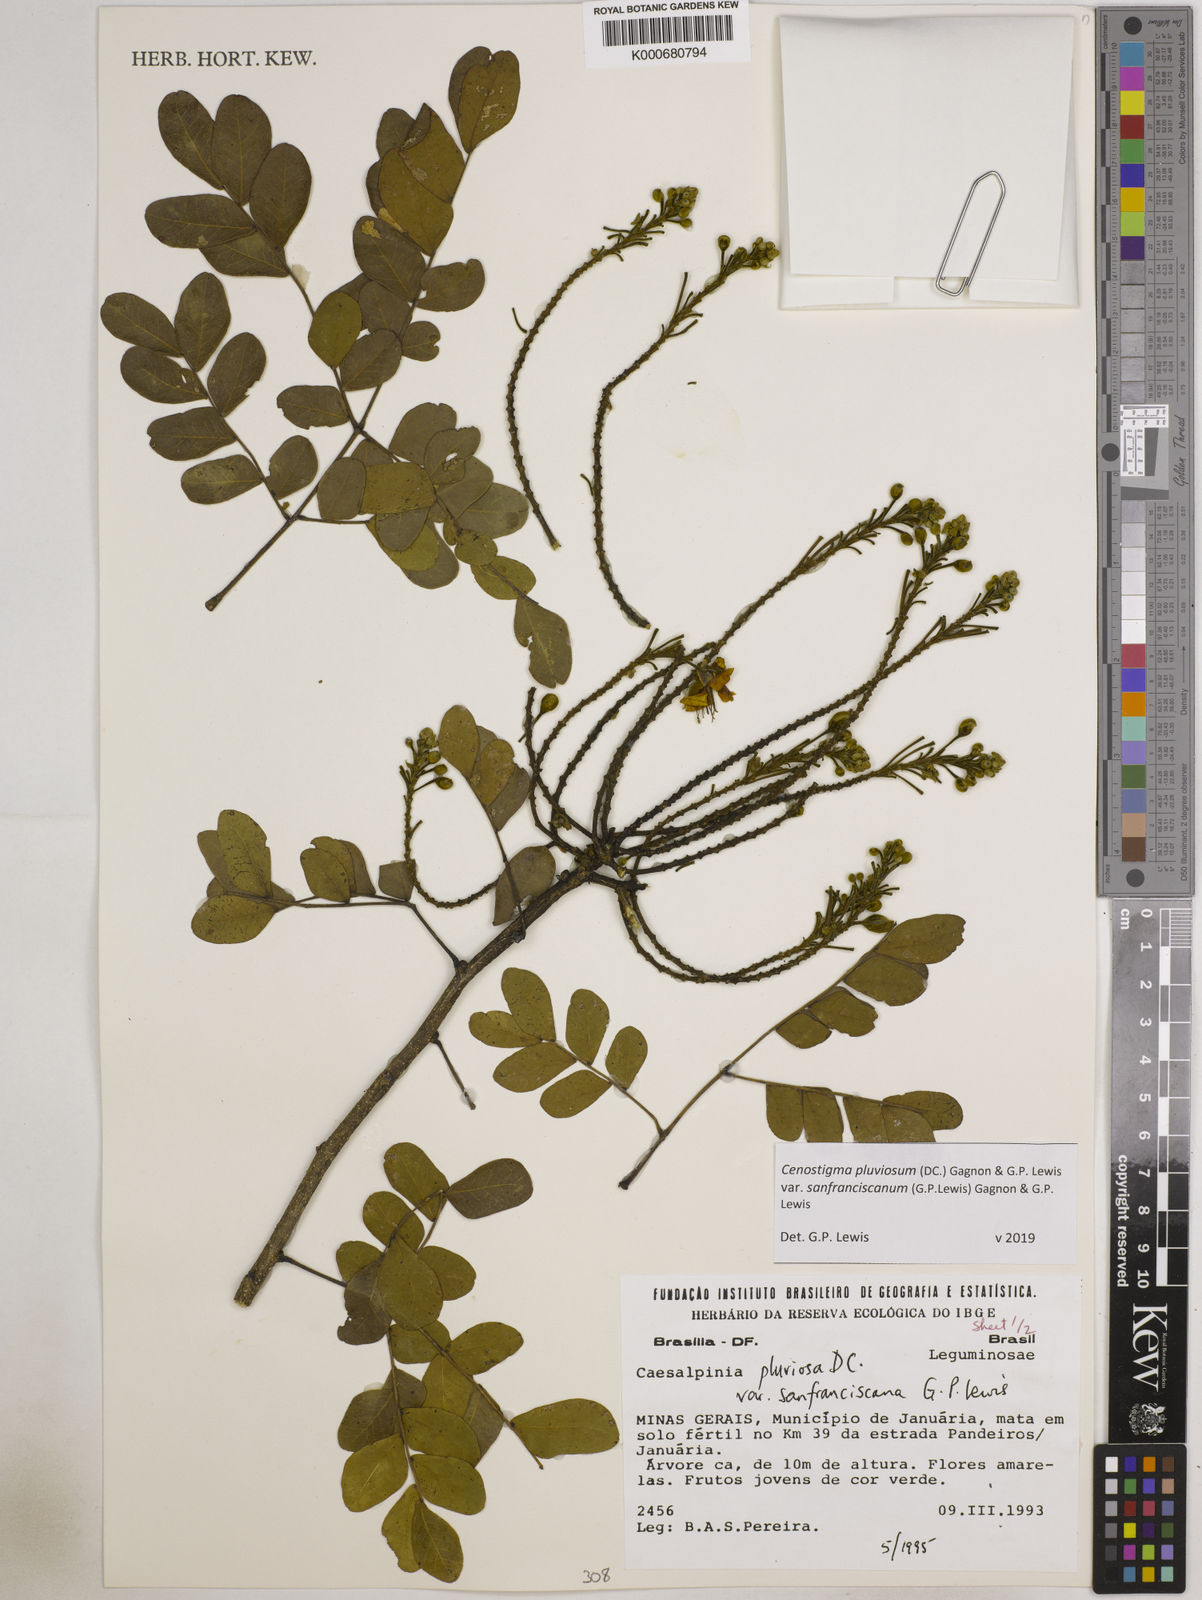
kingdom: Plantae
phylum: Tracheophyta
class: Magnoliopsida
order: Fabales
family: Fabaceae
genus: Cenostigma
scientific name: Cenostigma pluviosum
